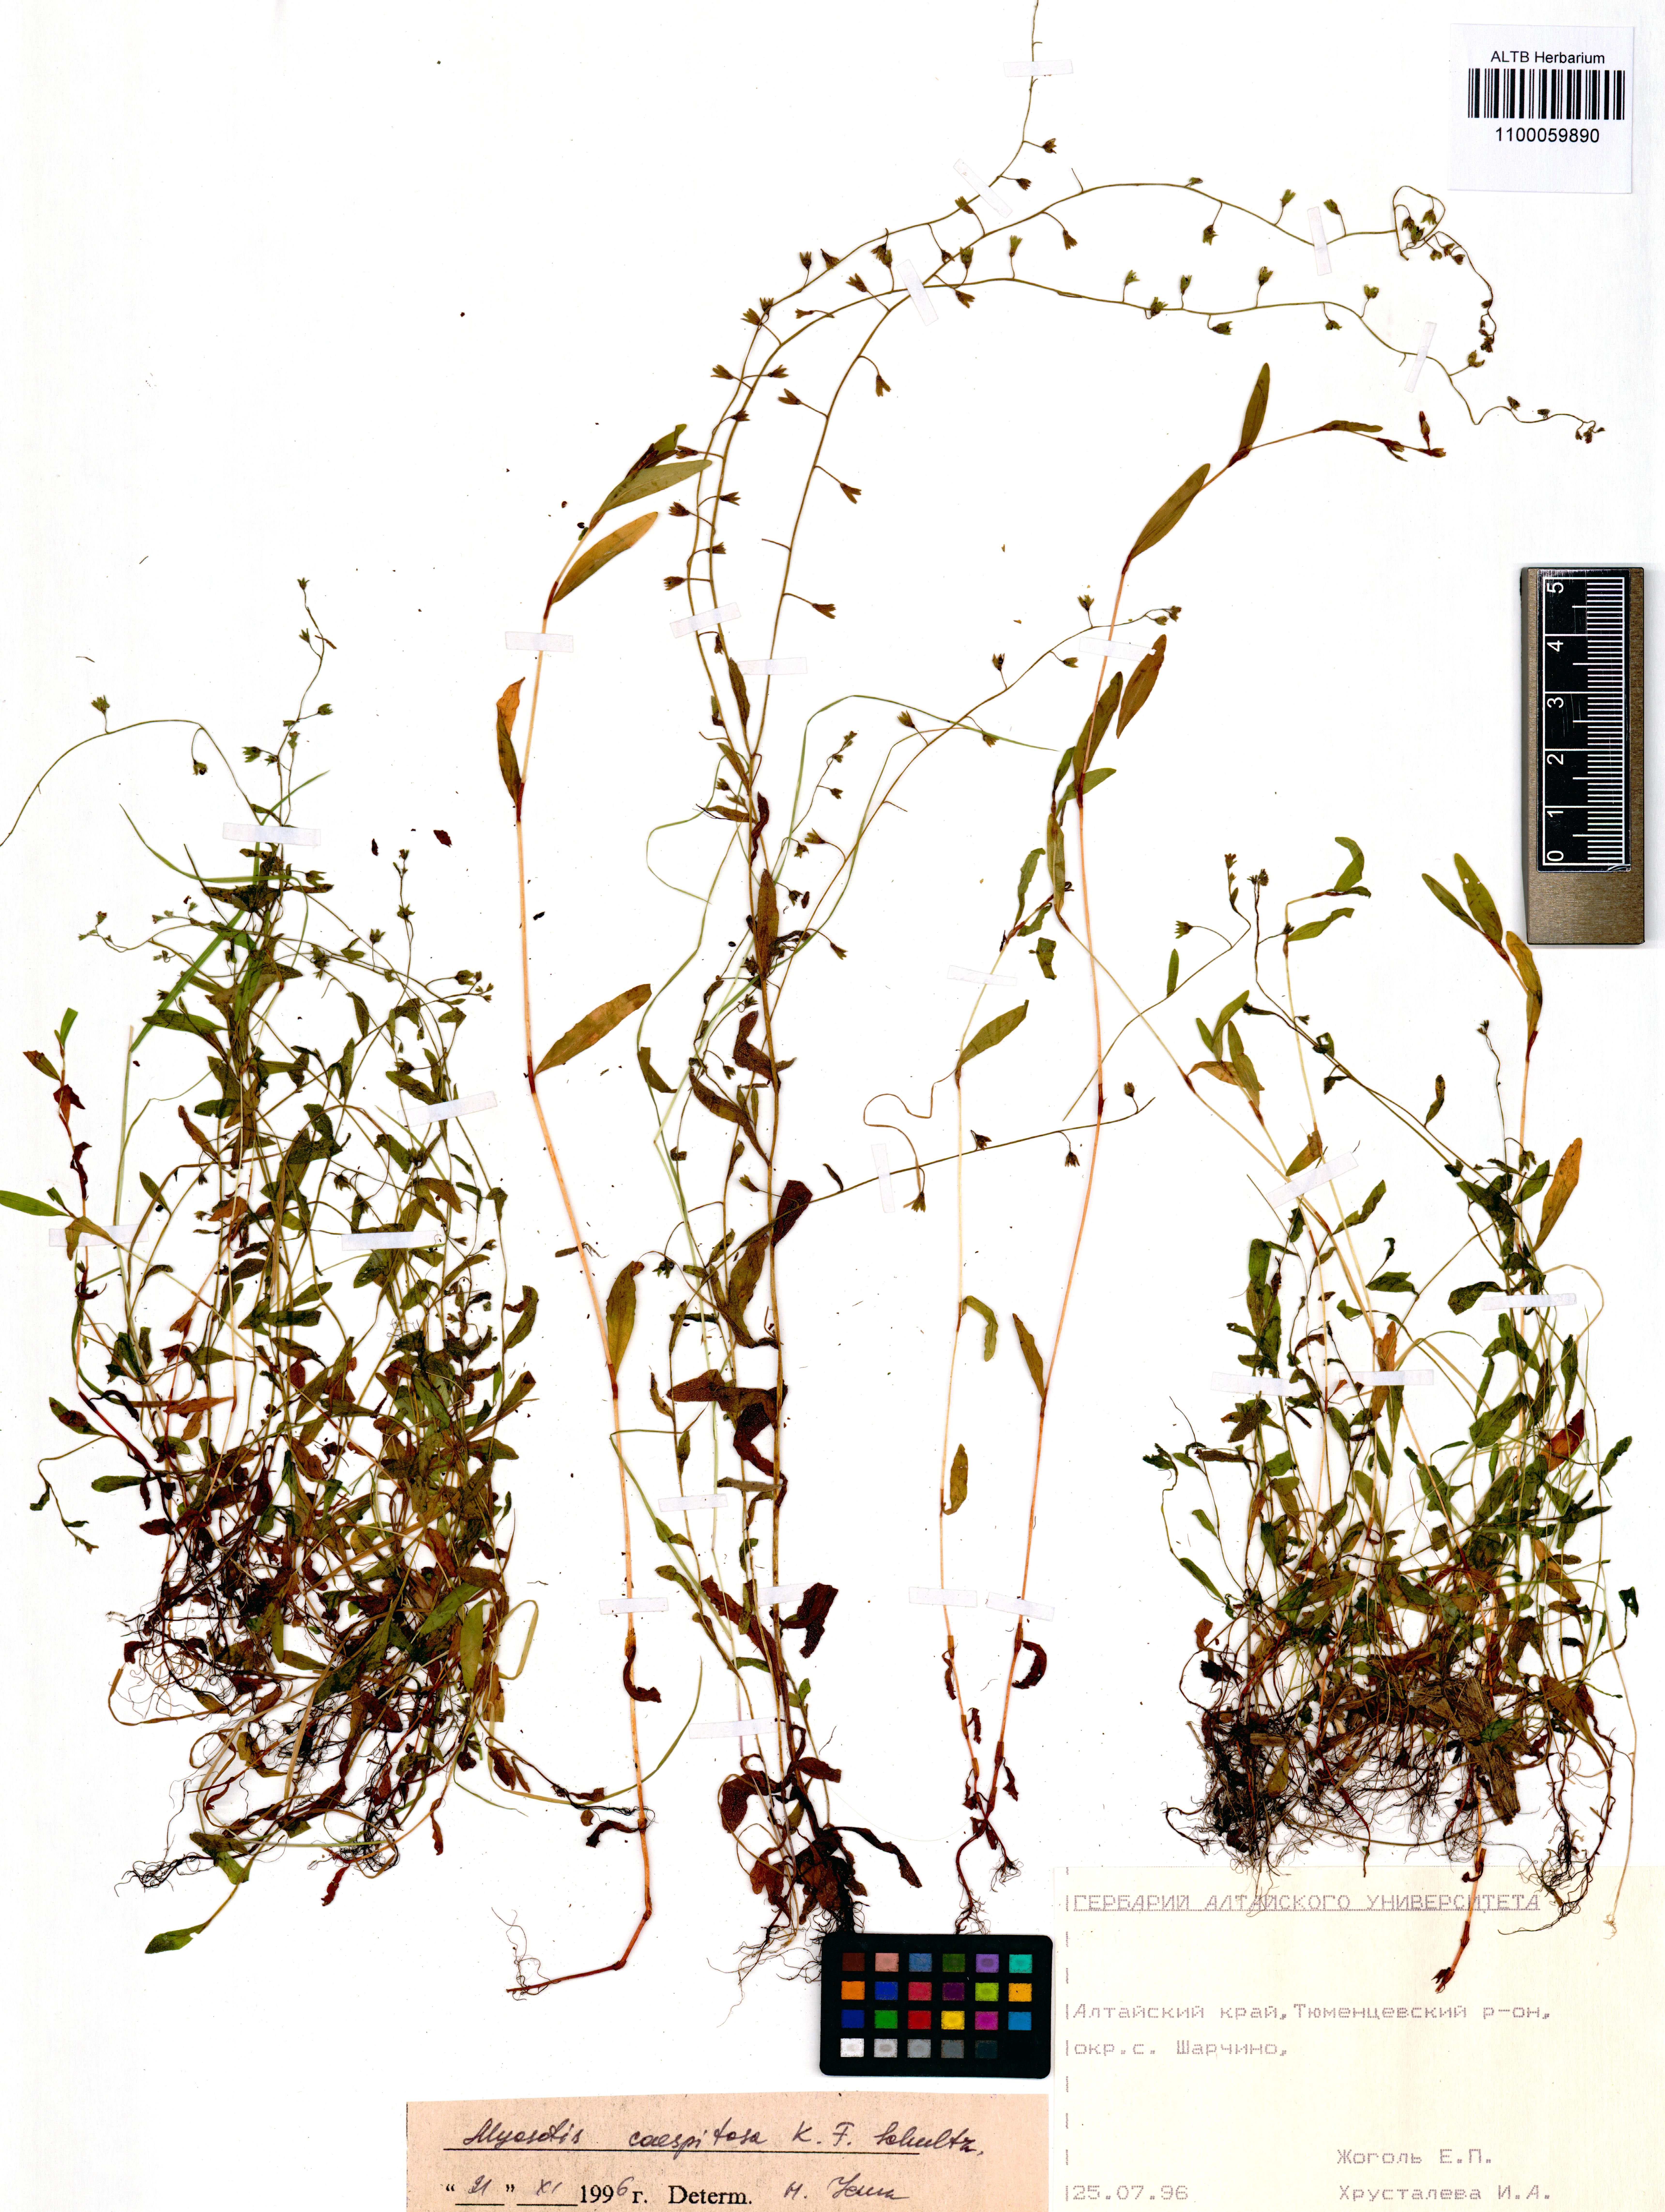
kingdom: Plantae
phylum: Tracheophyta
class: Magnoliopsida
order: Boraginales
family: Boraginaceae
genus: Myosotis
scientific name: Myosotis laxa
